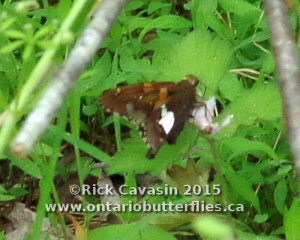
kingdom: Animalia
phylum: Arthropoda
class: Insecta
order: Lepidoptera
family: Hesperiidae
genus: Epargyreus
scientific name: Epargyreus clarus
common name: Silver-spotted Skipper
